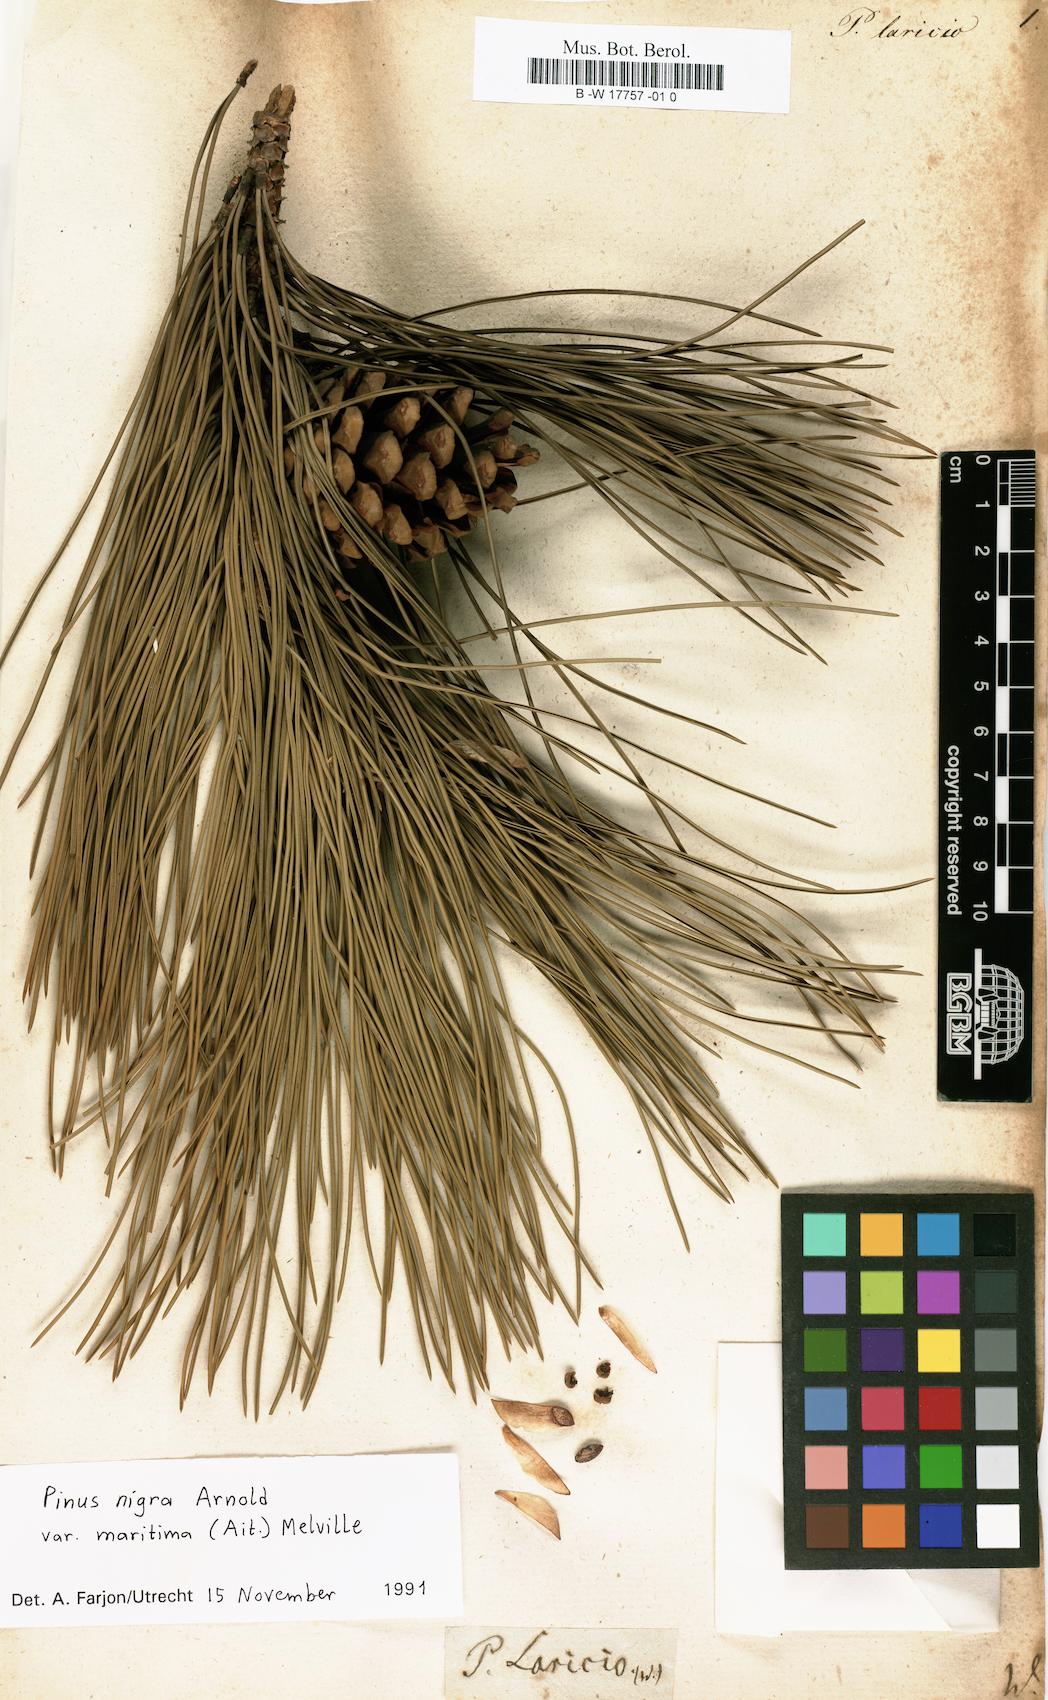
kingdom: Plantae
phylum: Tracheophyta
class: Pinopsida
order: Pinales
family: Pinaceae
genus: Pinus
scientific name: Pinus nigra
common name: Austrian pine
